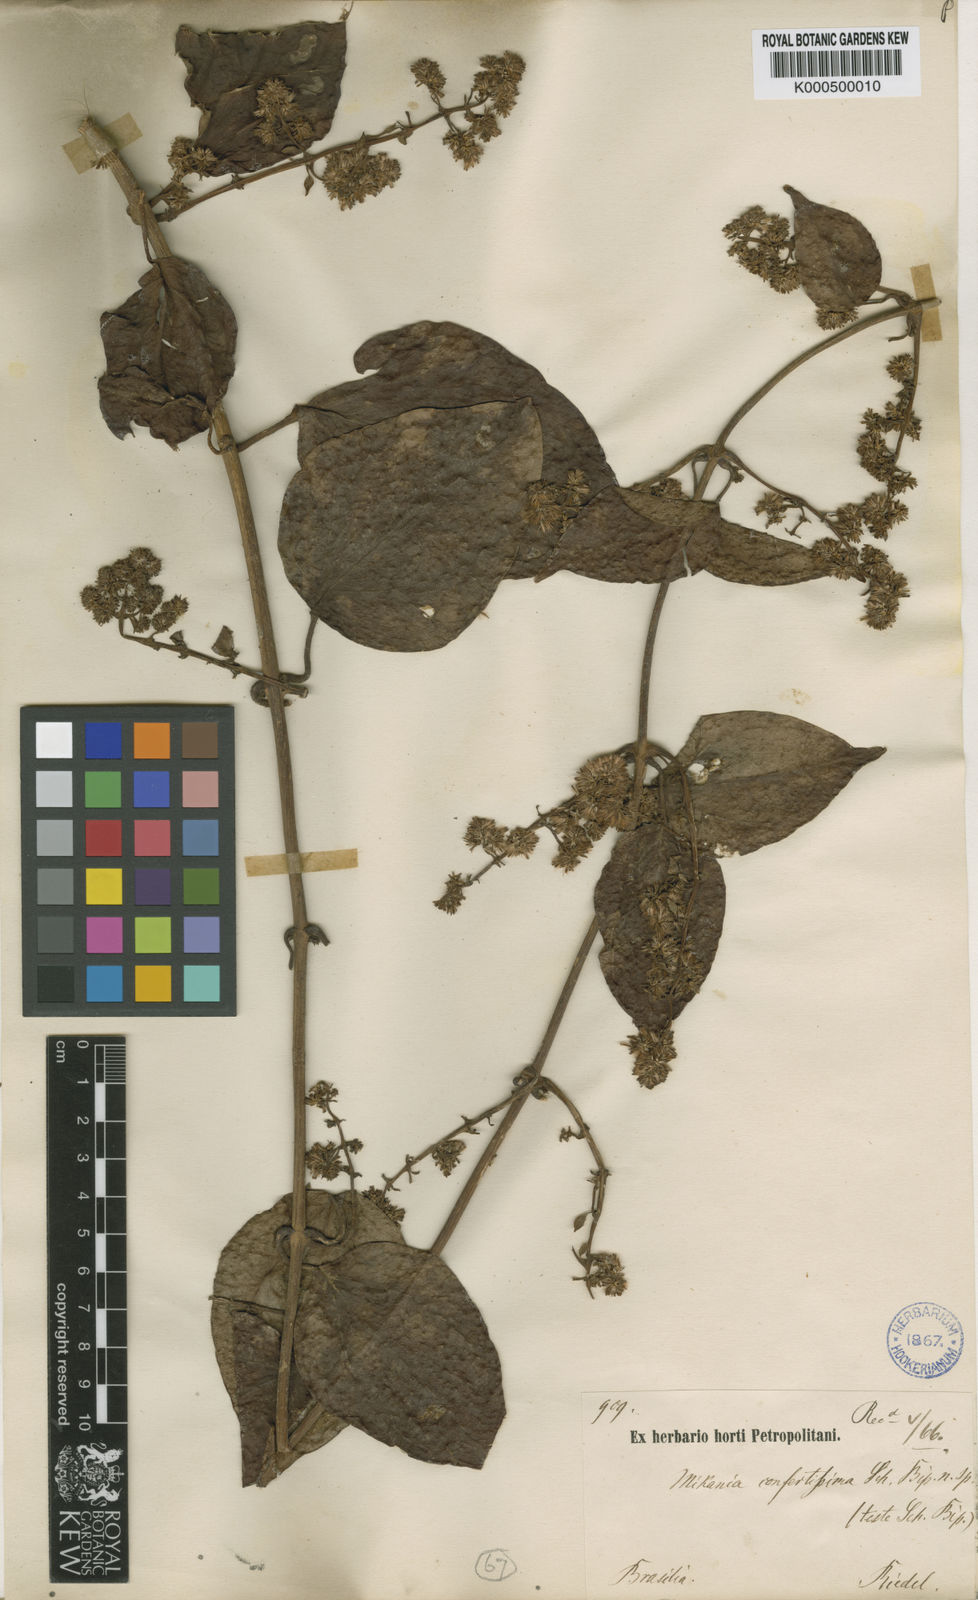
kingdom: Plantae
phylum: Tracheophyta
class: Magnoliopsida
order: Asterales
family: Asteraceae
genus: Mikania
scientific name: Mikania confertissima
